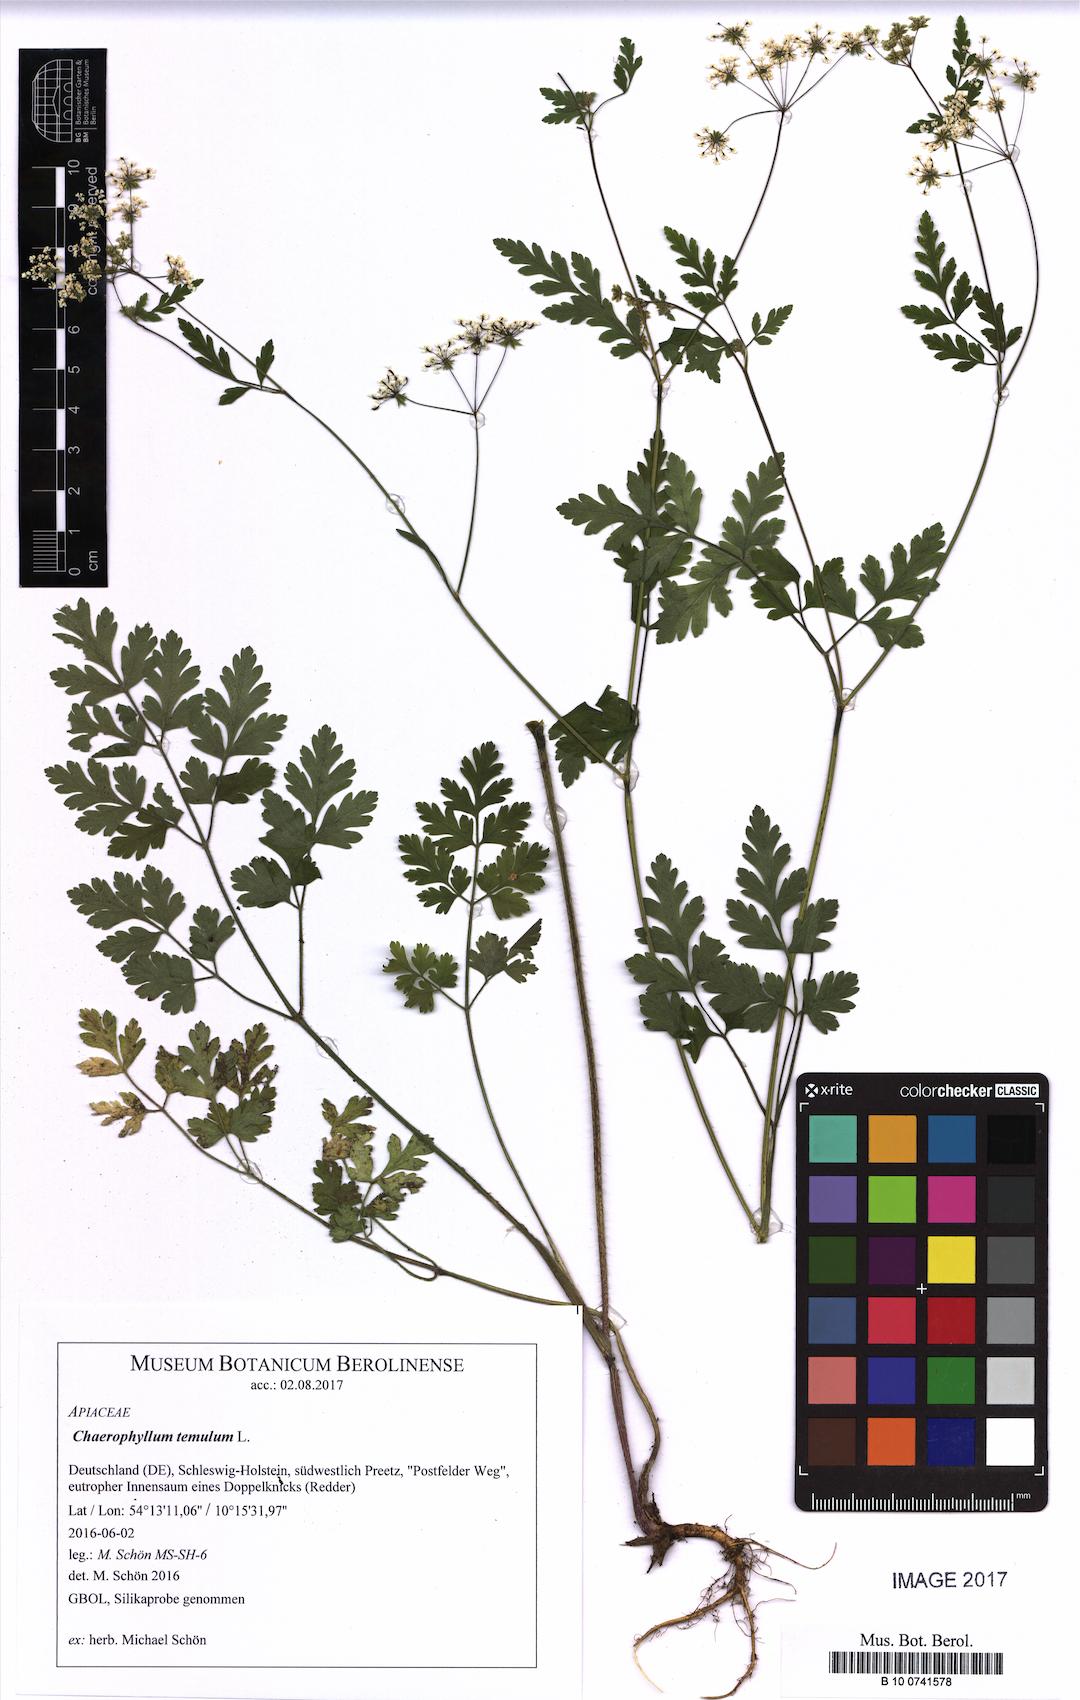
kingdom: Plantae
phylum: Tracheophyta
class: Magnoliopsida
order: Apiales
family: Apiaceae
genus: Chaerophyllum
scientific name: Chaerophyllum temulum
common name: Rough chervil
